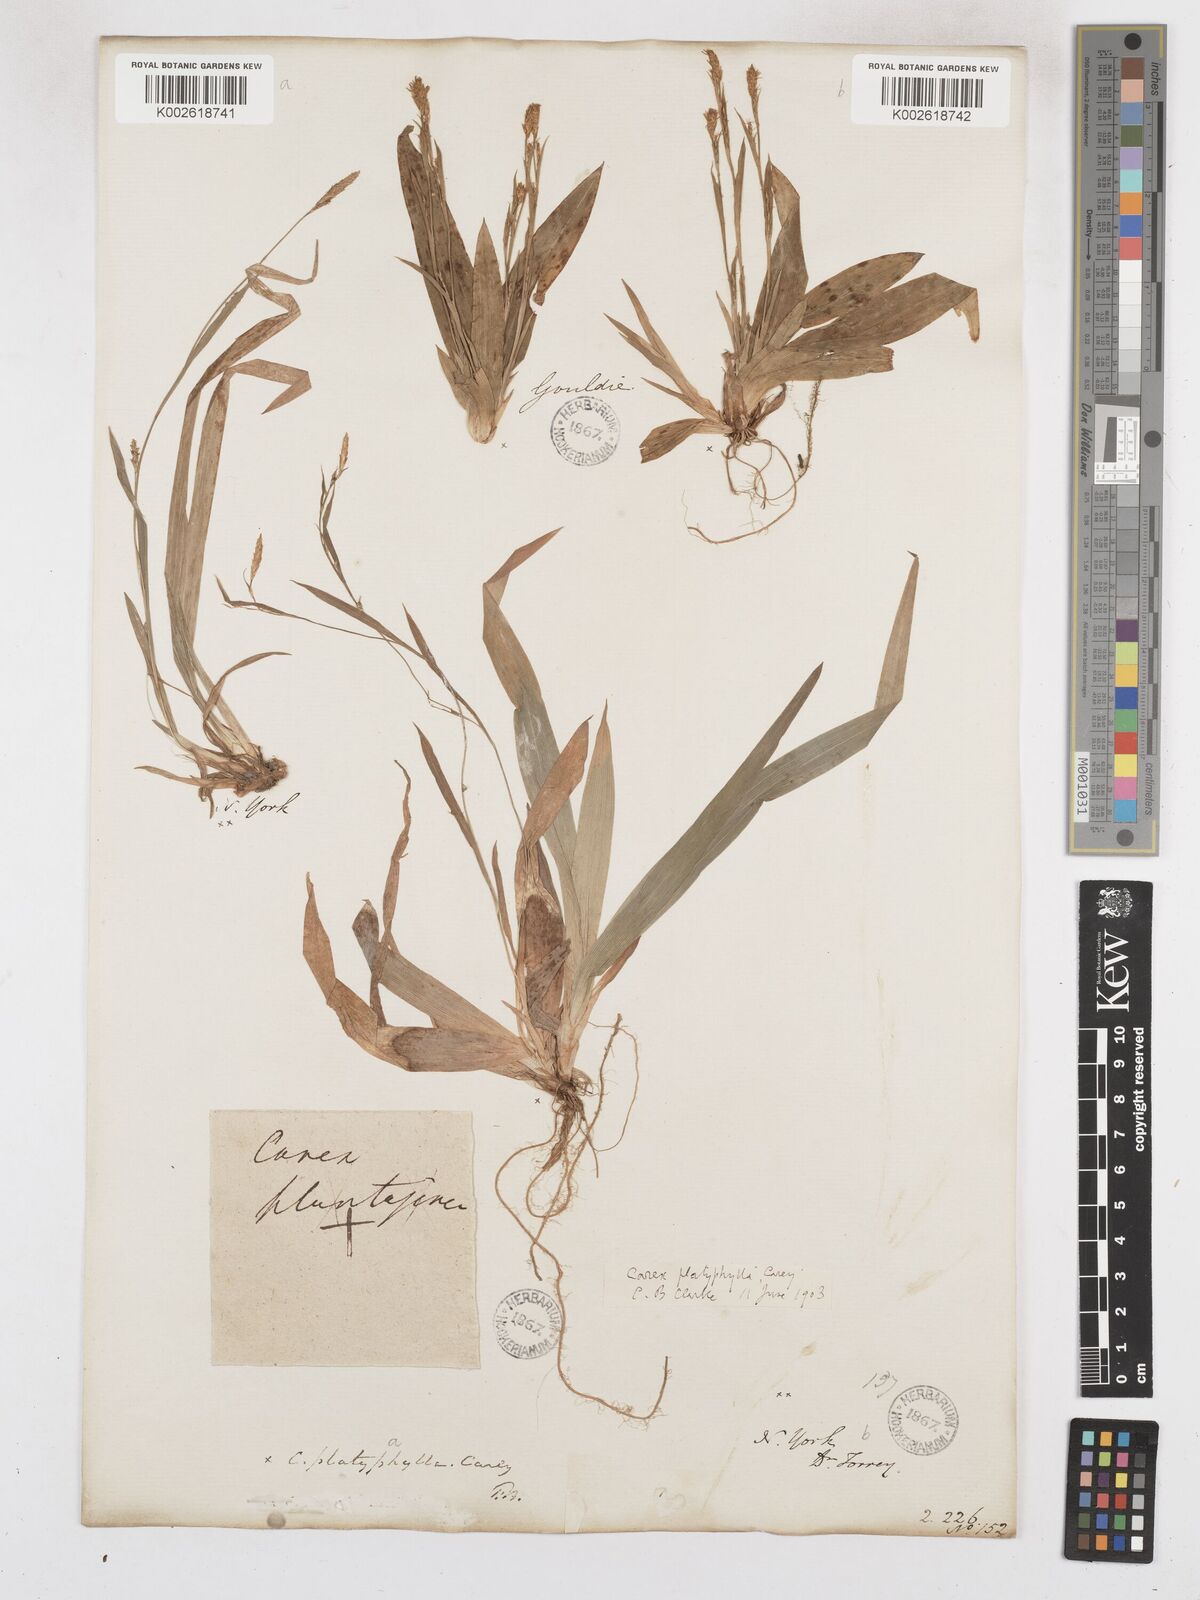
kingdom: Plantae
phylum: Tracheophyta
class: Liliopsida
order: Poales
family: Cyperaceae
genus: Carex
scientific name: Carex platyphylla
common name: Broad-leaved sedge
